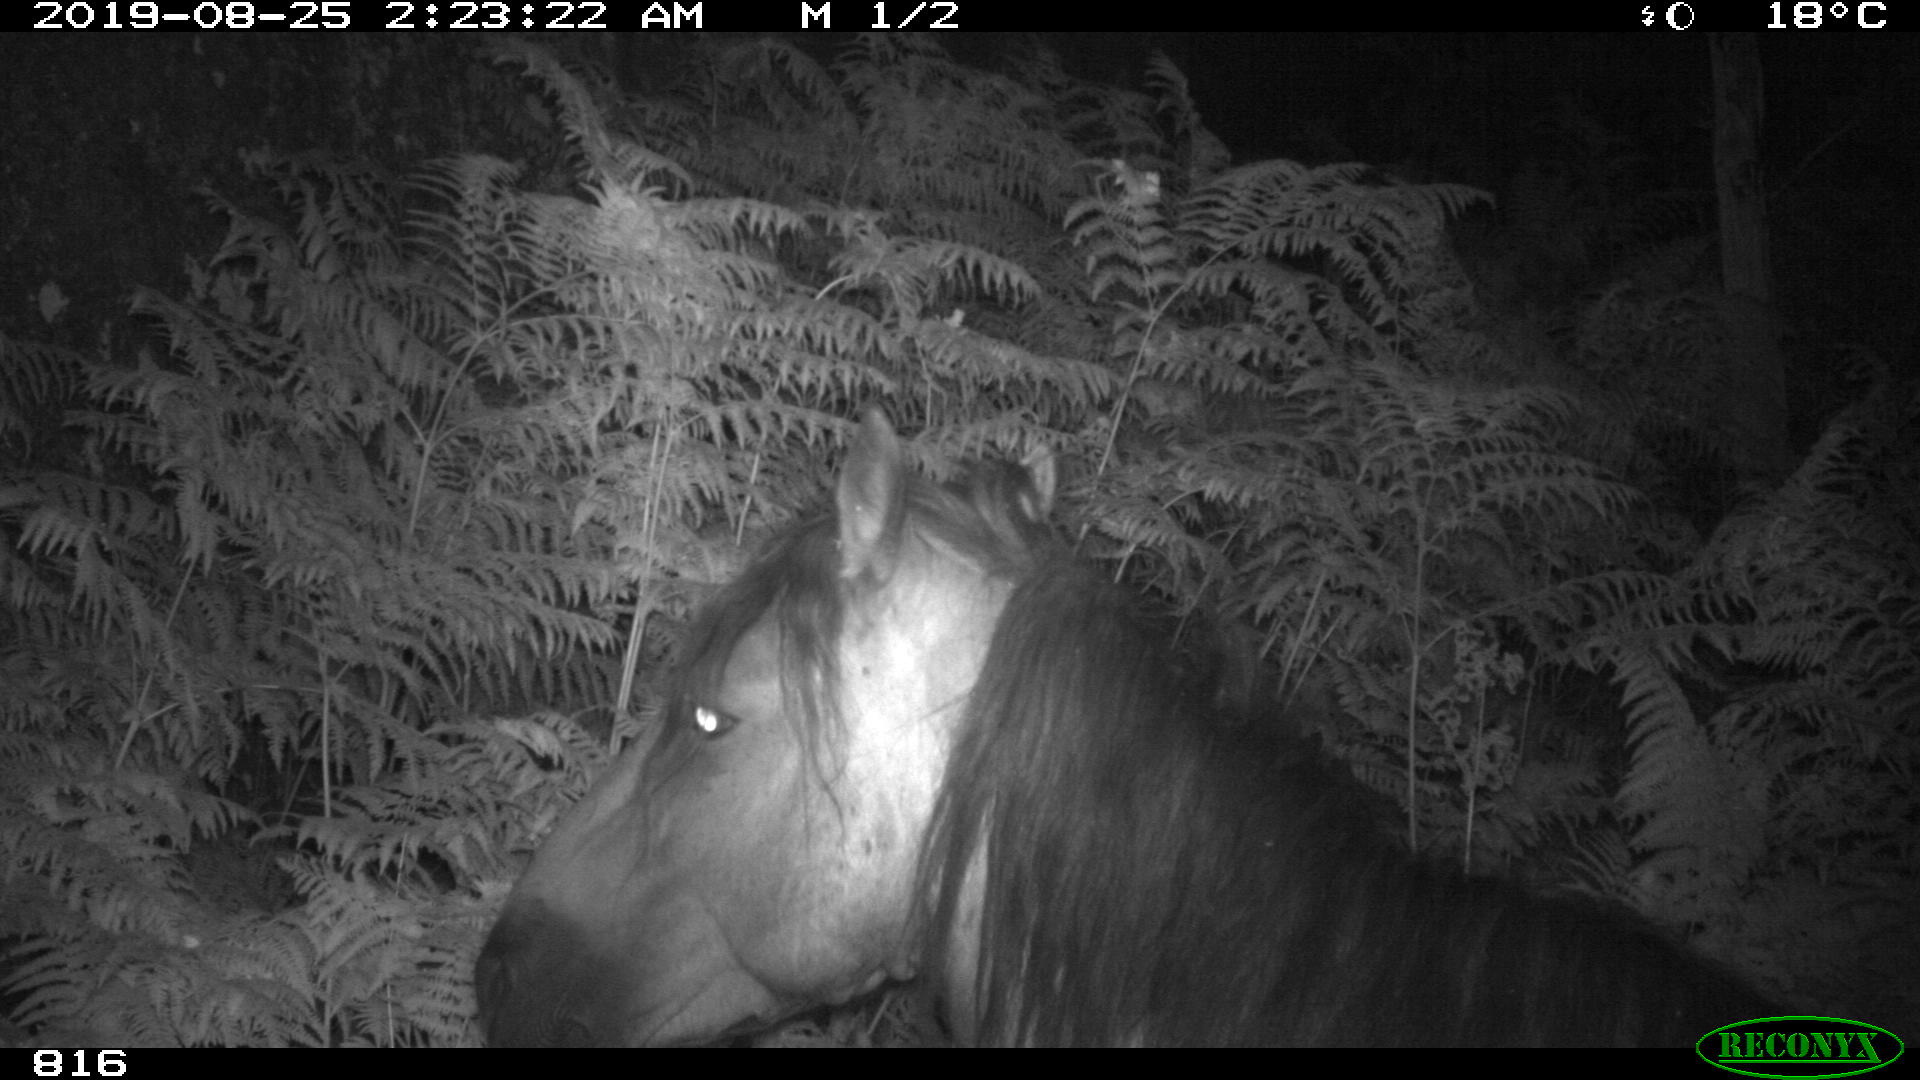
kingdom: Animalia
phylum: Chordata
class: Mammalia
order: Perissodactyla
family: Equidae
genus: Equus
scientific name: Equus caballus
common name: Horse
